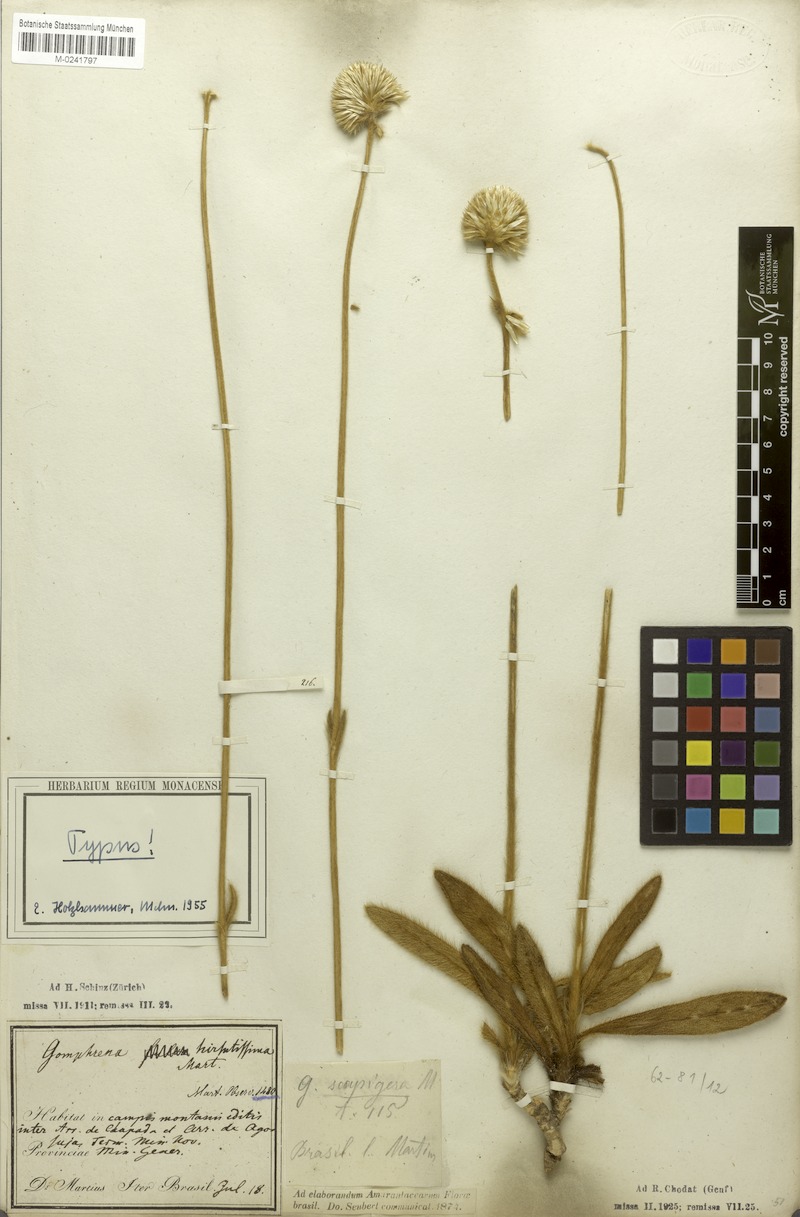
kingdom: Plantae
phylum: Tracheophyta
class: Magnoliopsida
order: Caryophyllales
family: Amaranthaceae
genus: Gomphrena
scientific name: Gomphrena scapigera
